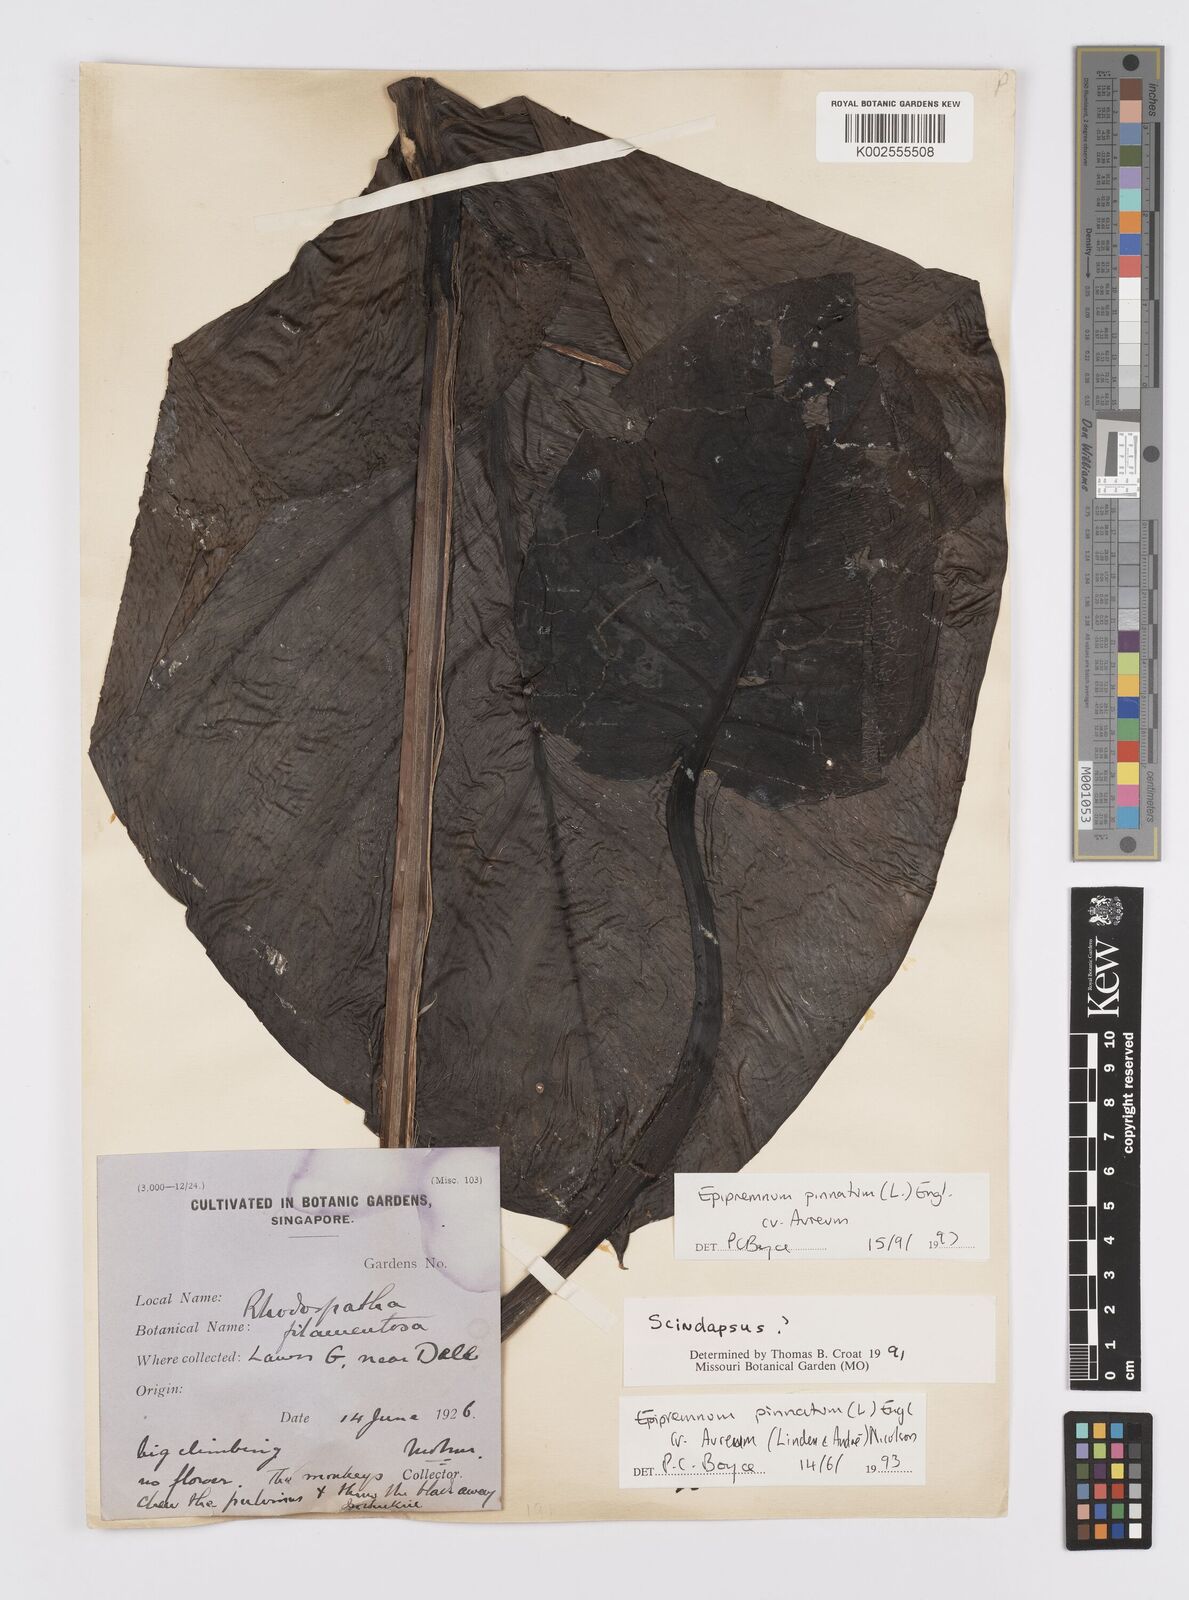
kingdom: Plantae
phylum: Tracheophyta
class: Liliopsida
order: Alismatales
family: Araceae
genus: Epipremnum
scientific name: Epipremnum aureum
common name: Golden hunter's-robe
